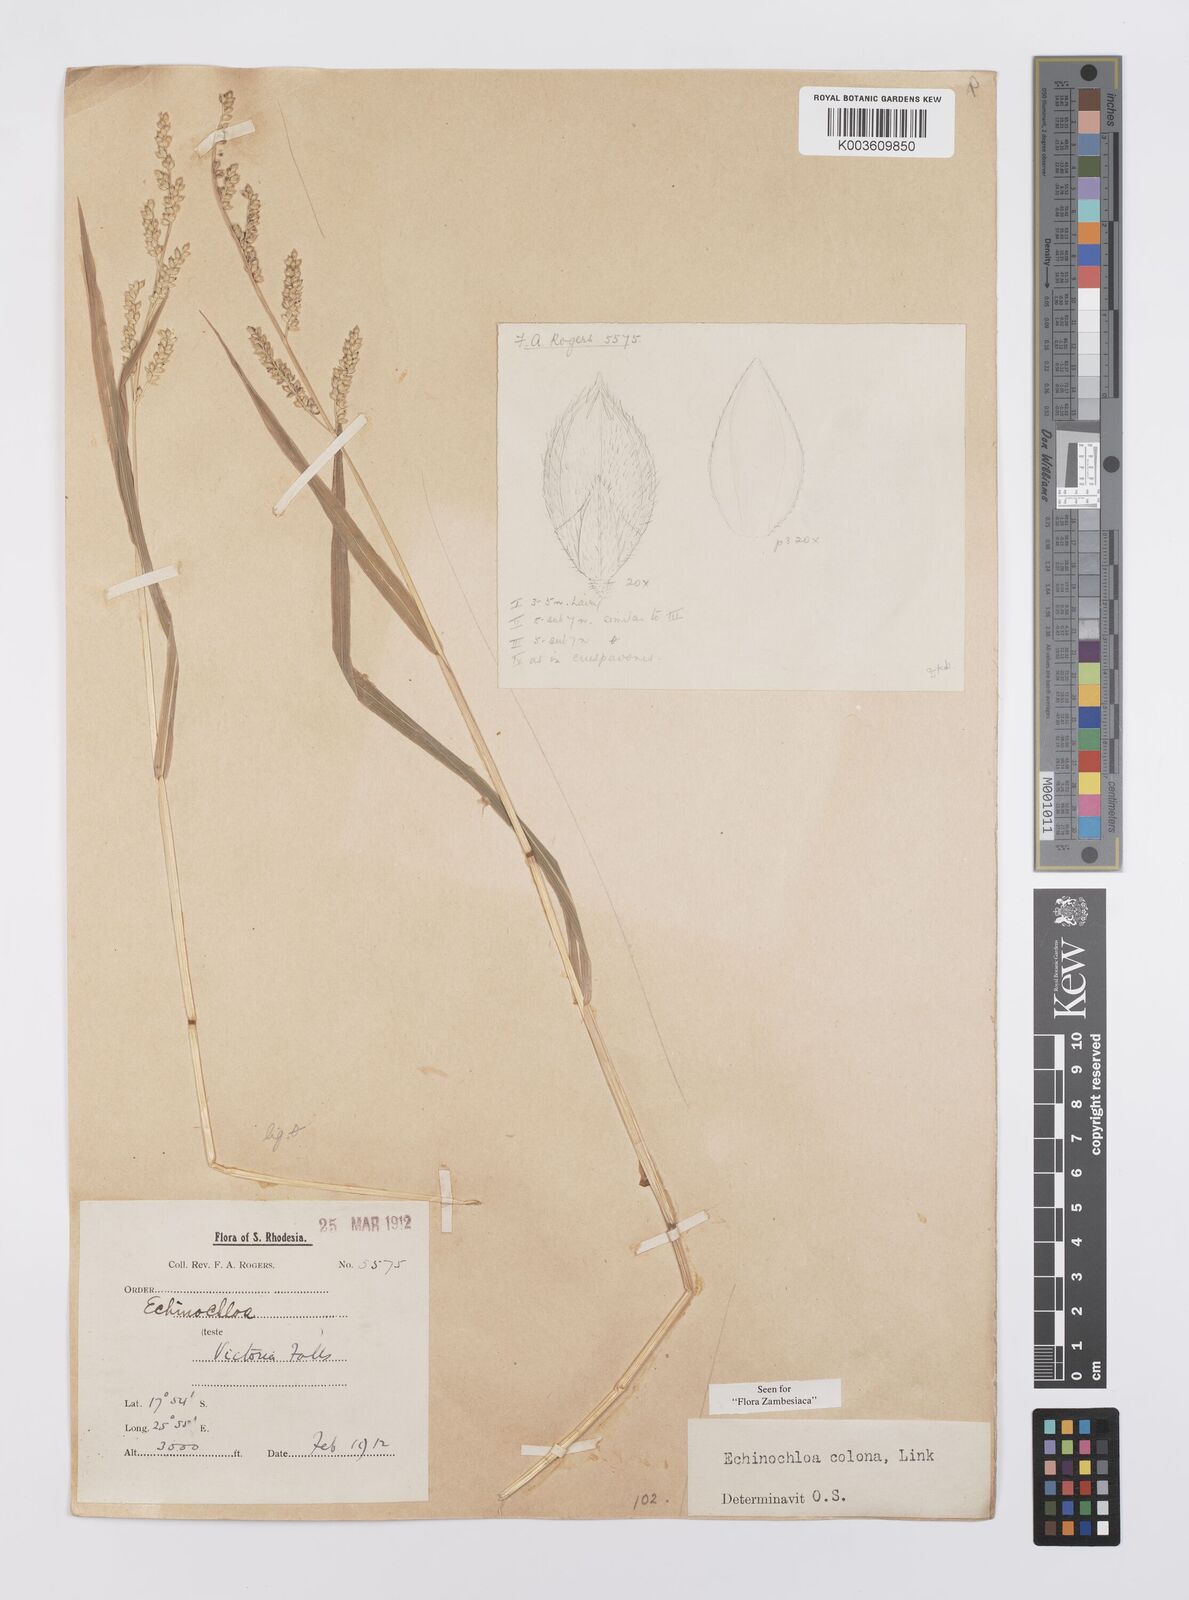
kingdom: Plantae
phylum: Tracheophyta
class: Liliopsida
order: Poales
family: Poaceae
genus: Echinochloa
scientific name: Echinochloa colonum
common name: Jungle rice
